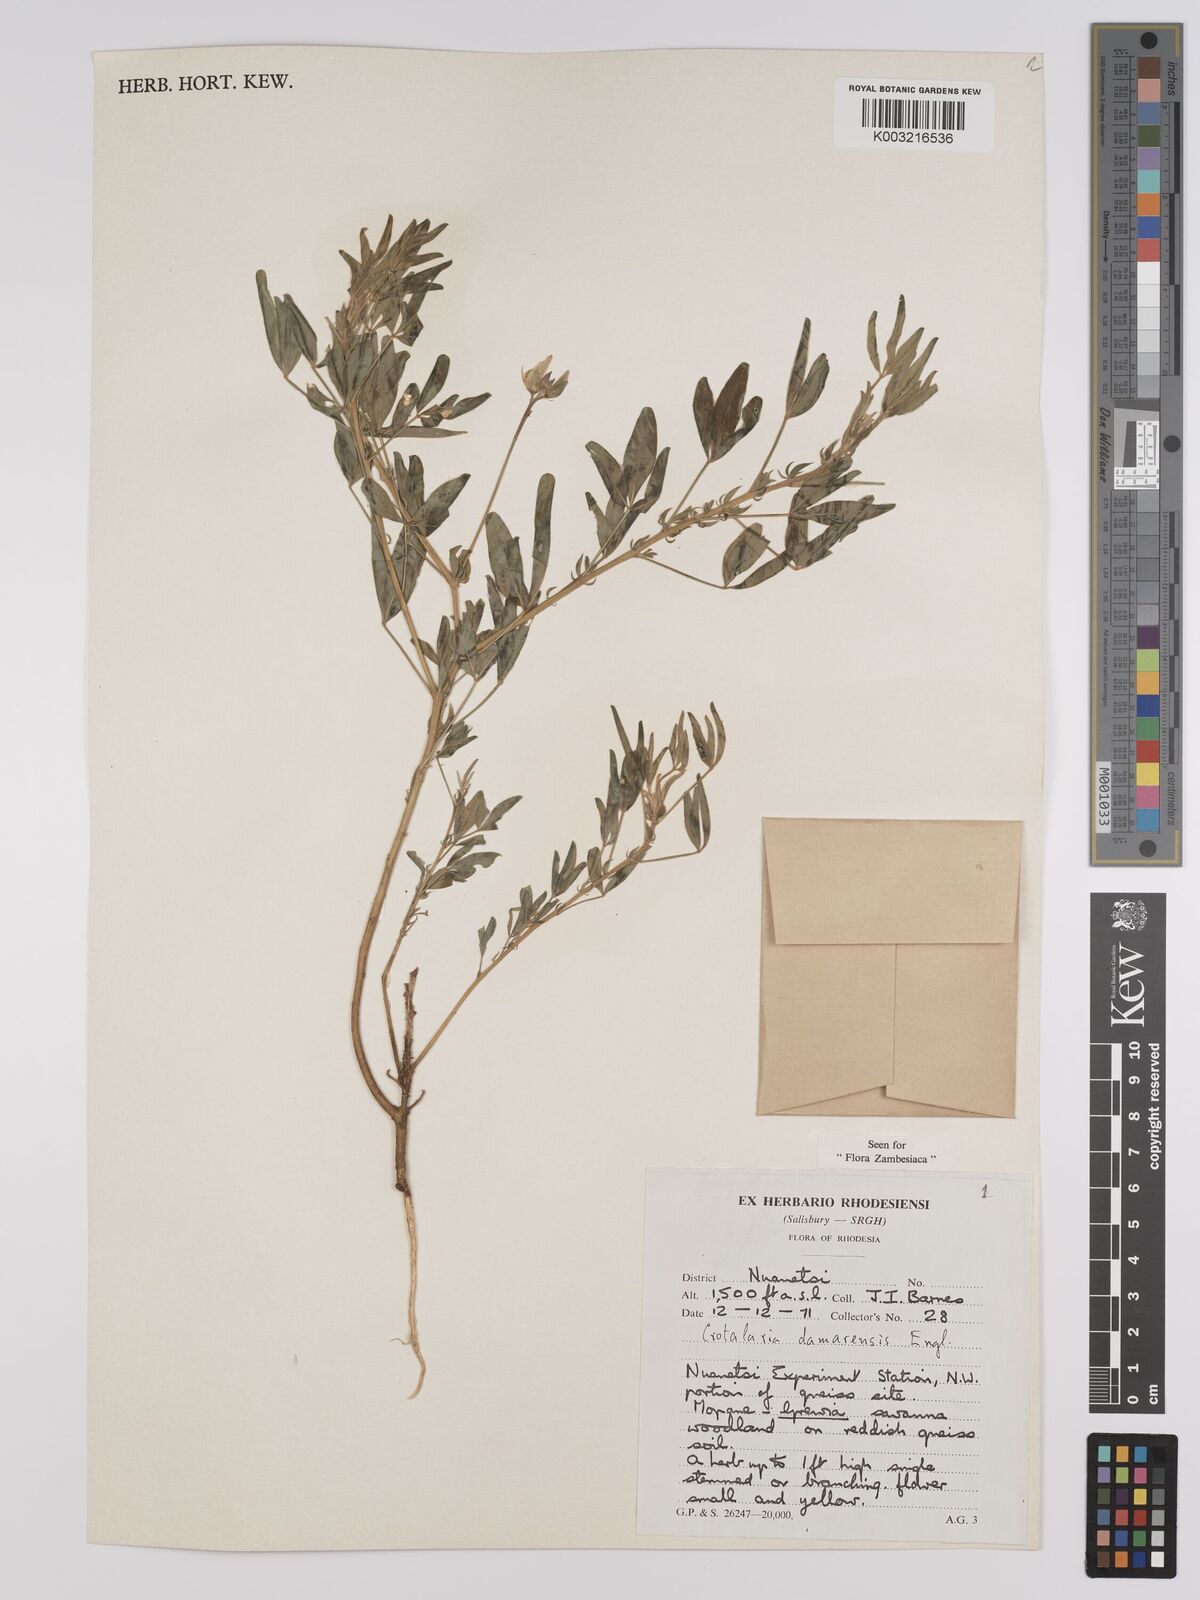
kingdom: Plantae
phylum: Tracheophyta
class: Magnoliopsida
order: Fabales
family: Fabaceae
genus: Crotalaria
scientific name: Crotalaria damarensis
